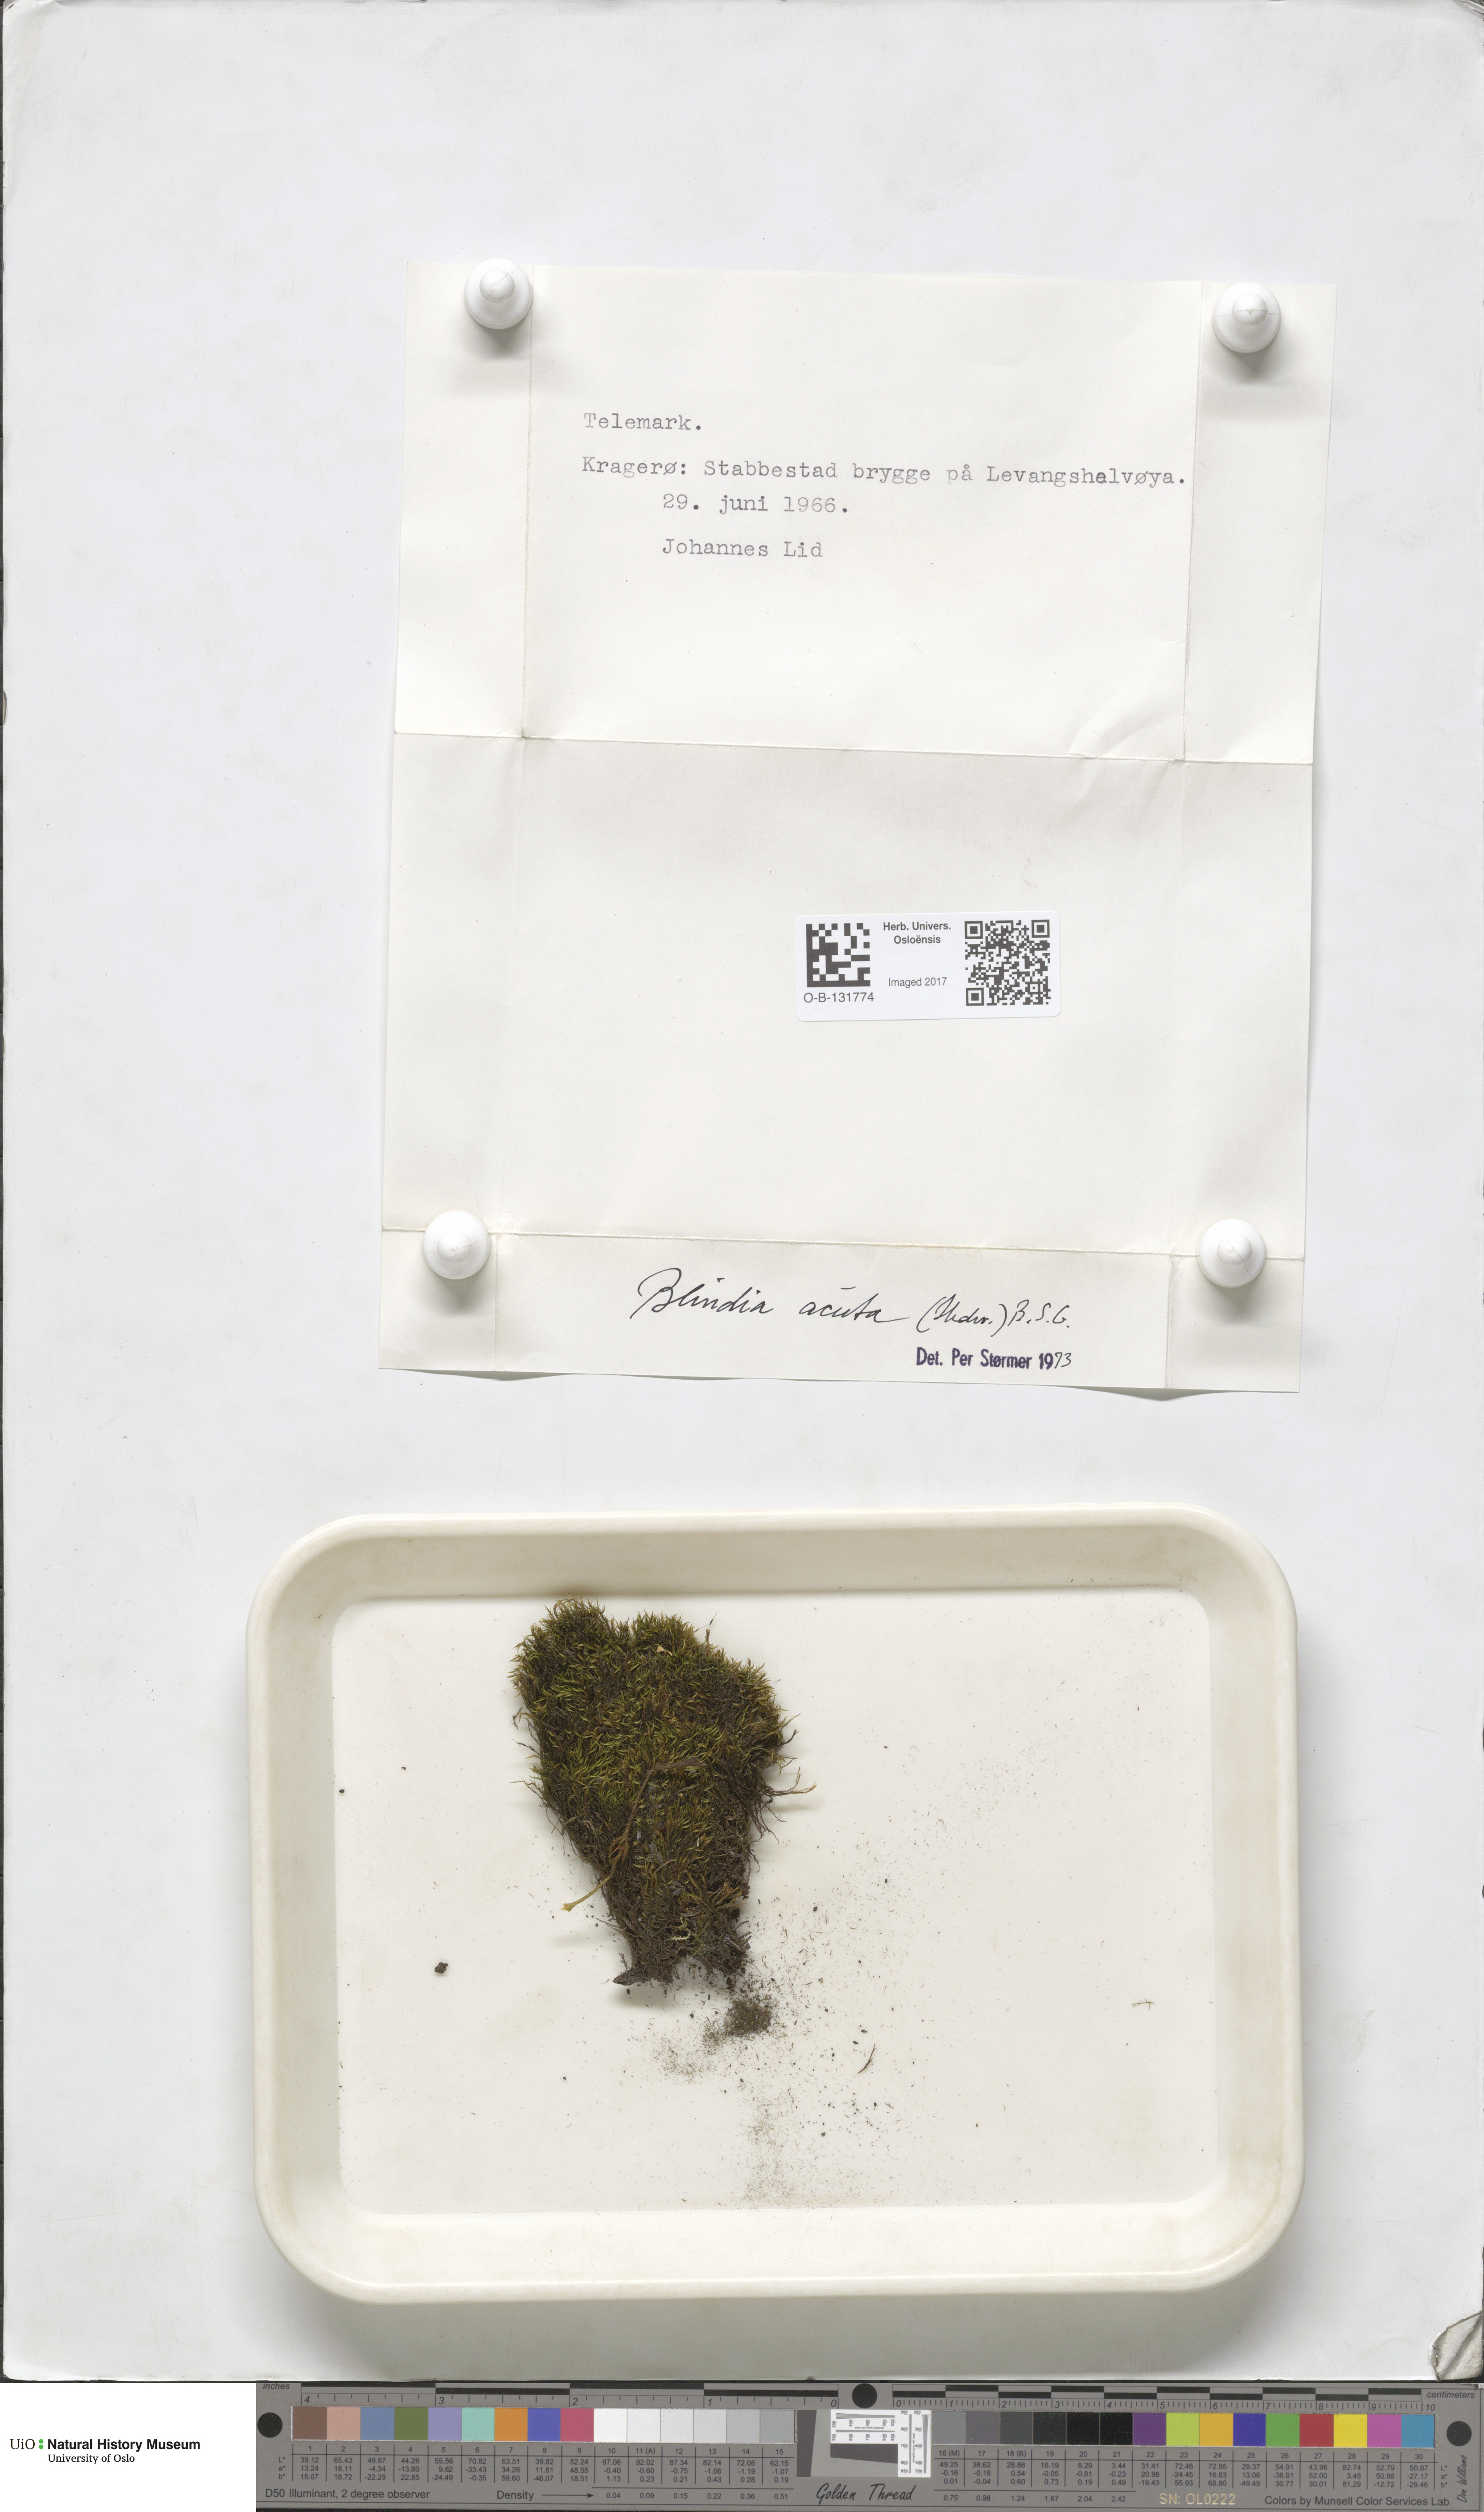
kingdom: Plantae
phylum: Bryophyta
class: Bryopsida
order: Grimmiales
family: Seligeriaceae
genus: Blindia
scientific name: Blindia acuta
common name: Sharp-leaved blind's moss
